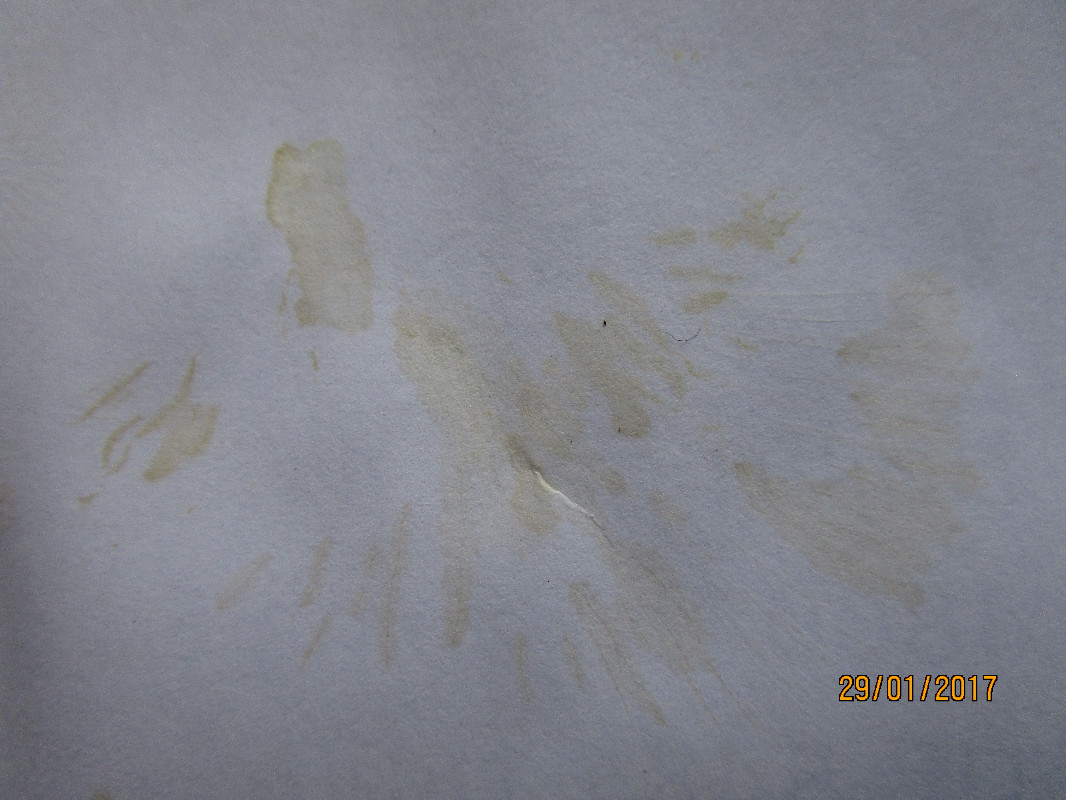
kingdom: Fungi
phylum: Basidiomycota
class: Agaricomycetes
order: Agaricales
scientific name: Agaricales
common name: champignonordenen
